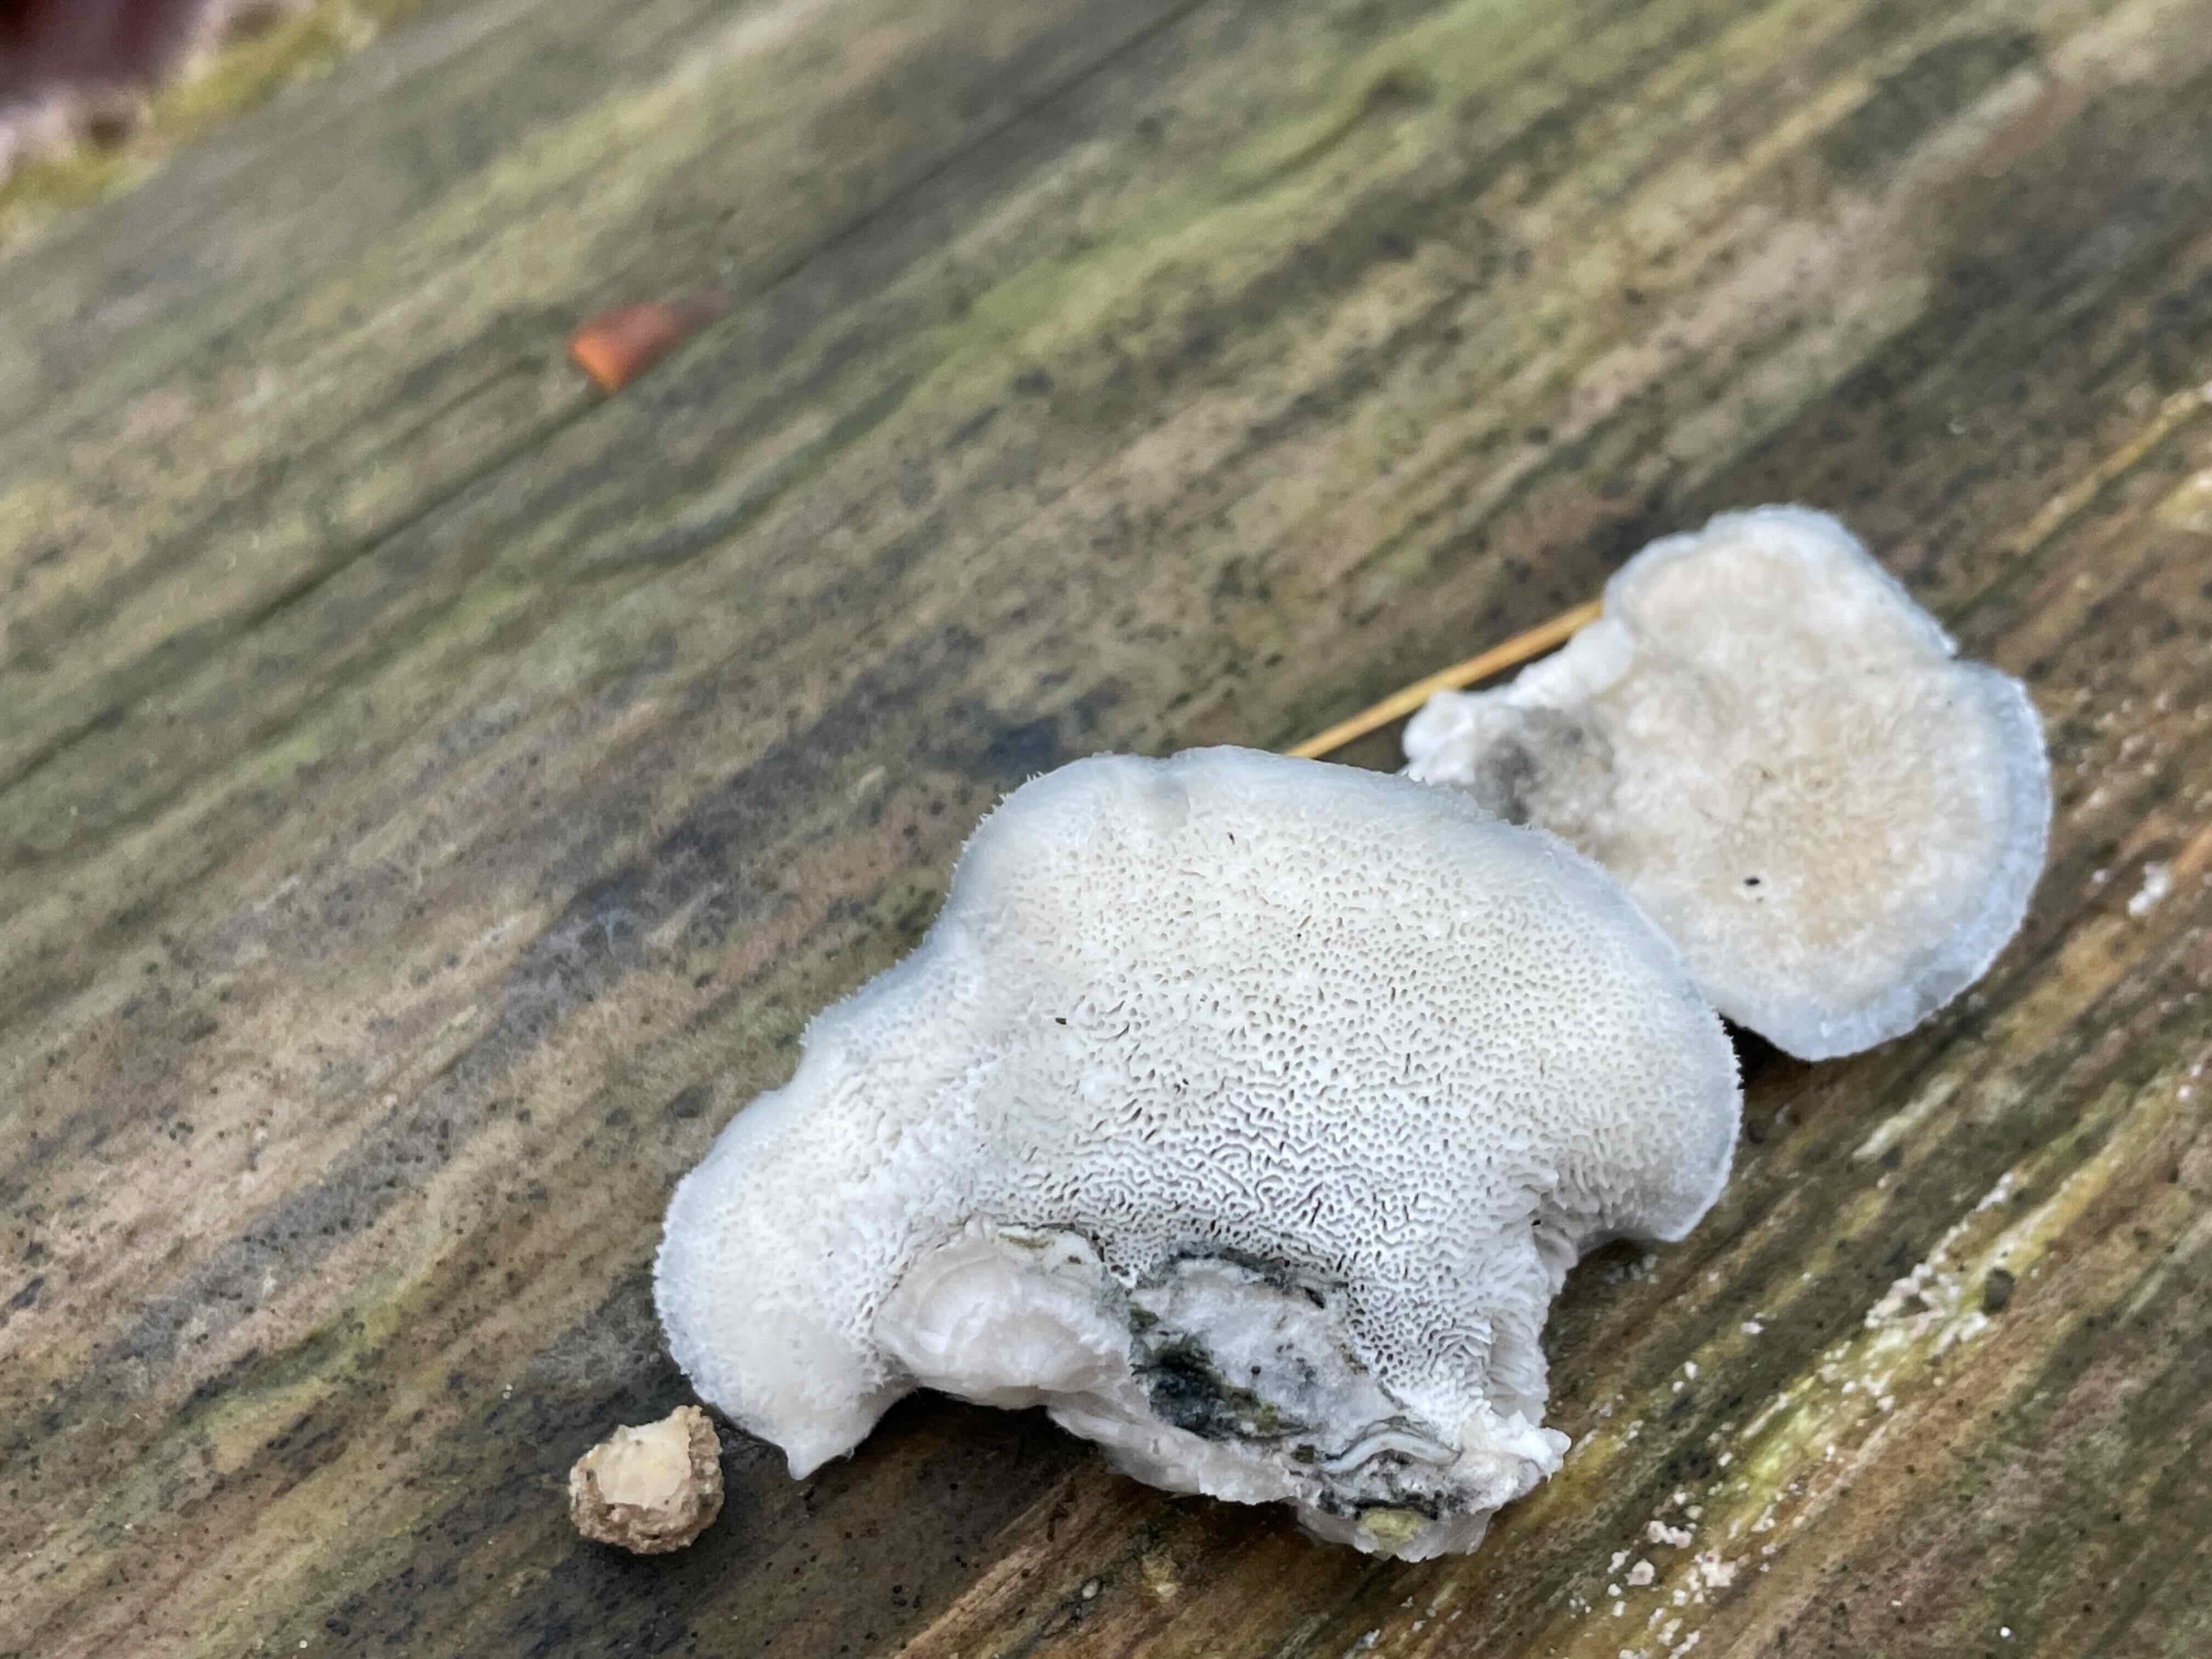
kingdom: Fungi
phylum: Basidiomycota
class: Agaricomycetes
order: Polyporales
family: Polyporaceae
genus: Cyanosporus
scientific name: Cyanosporus caesius
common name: blålig kødporesvamp
